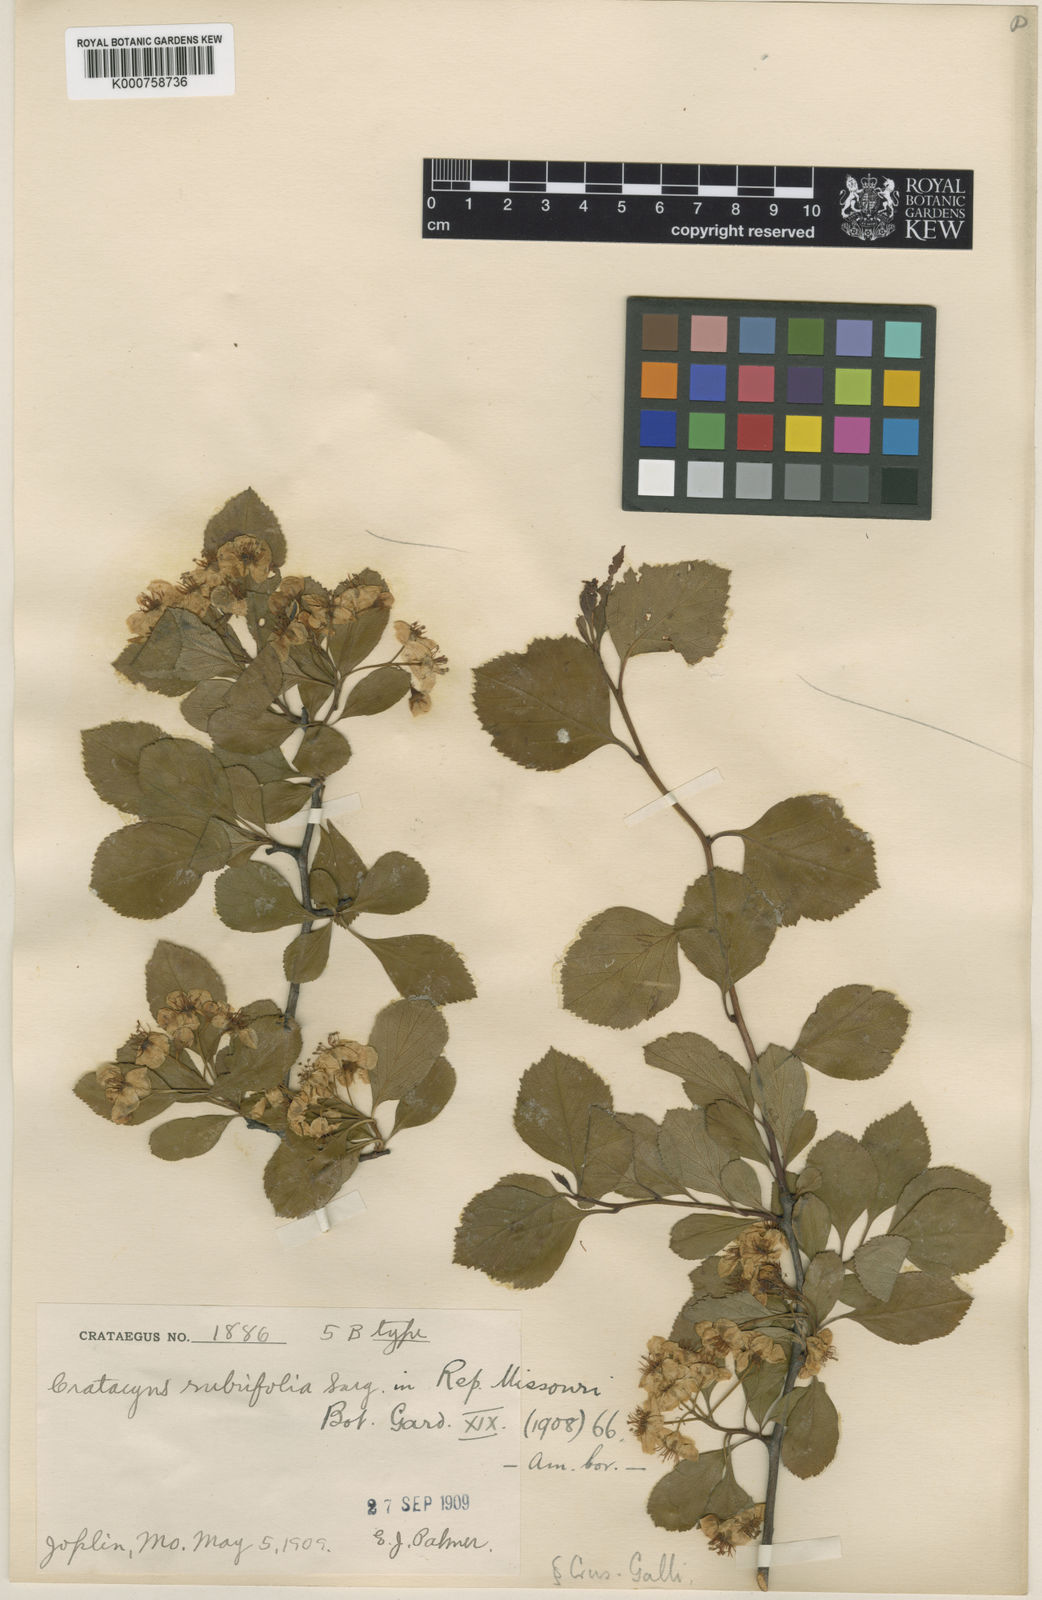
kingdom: Plantae
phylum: Tracheophyta
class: Magnoliopsida
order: Rosales
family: Rosaceae
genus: Crataegus
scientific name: Crataegus rubrifolia
